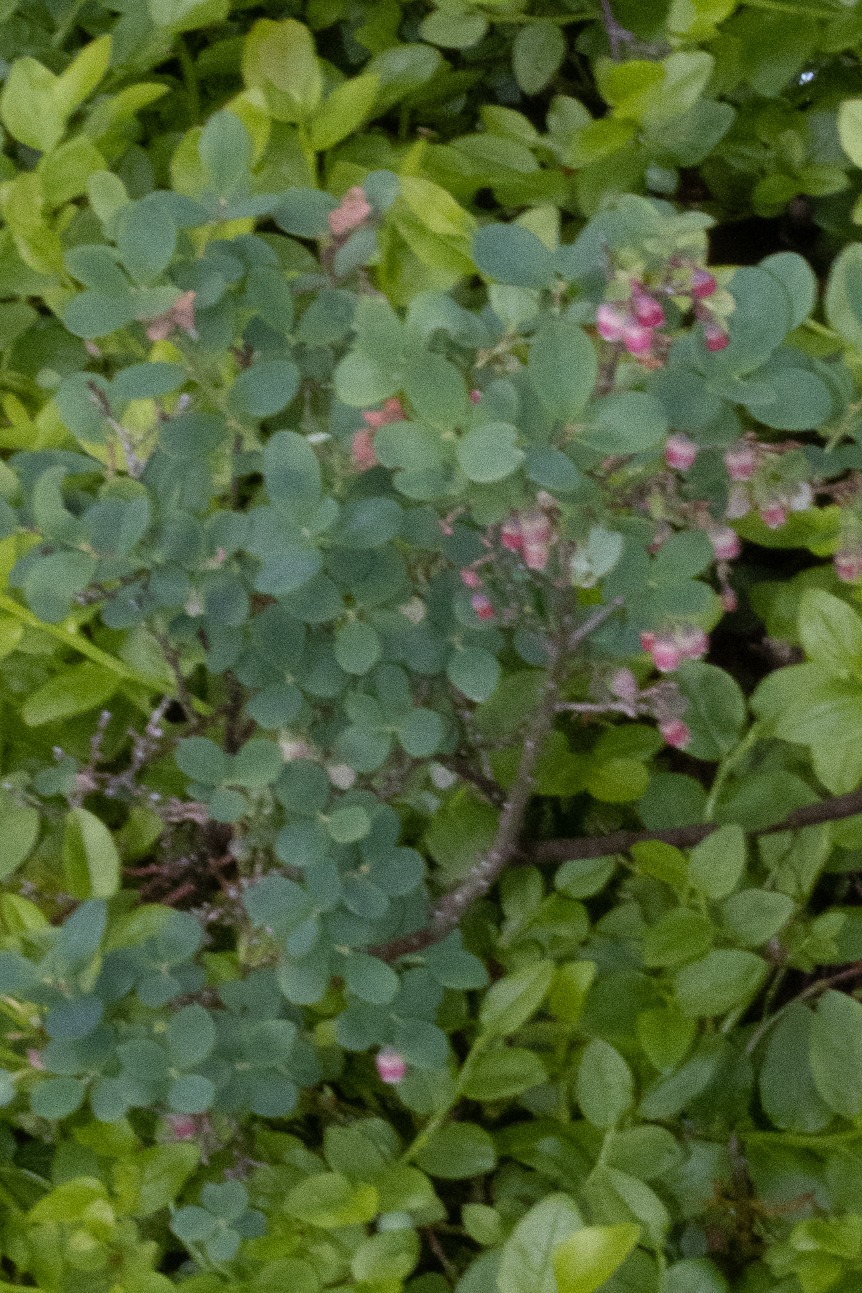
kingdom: Plantae
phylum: Tracheophyta
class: Magnoliopsida
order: Ericales
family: Ericaceae
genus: Vaccinium
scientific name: Vaccinium uliginosum
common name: Mose-bølle
